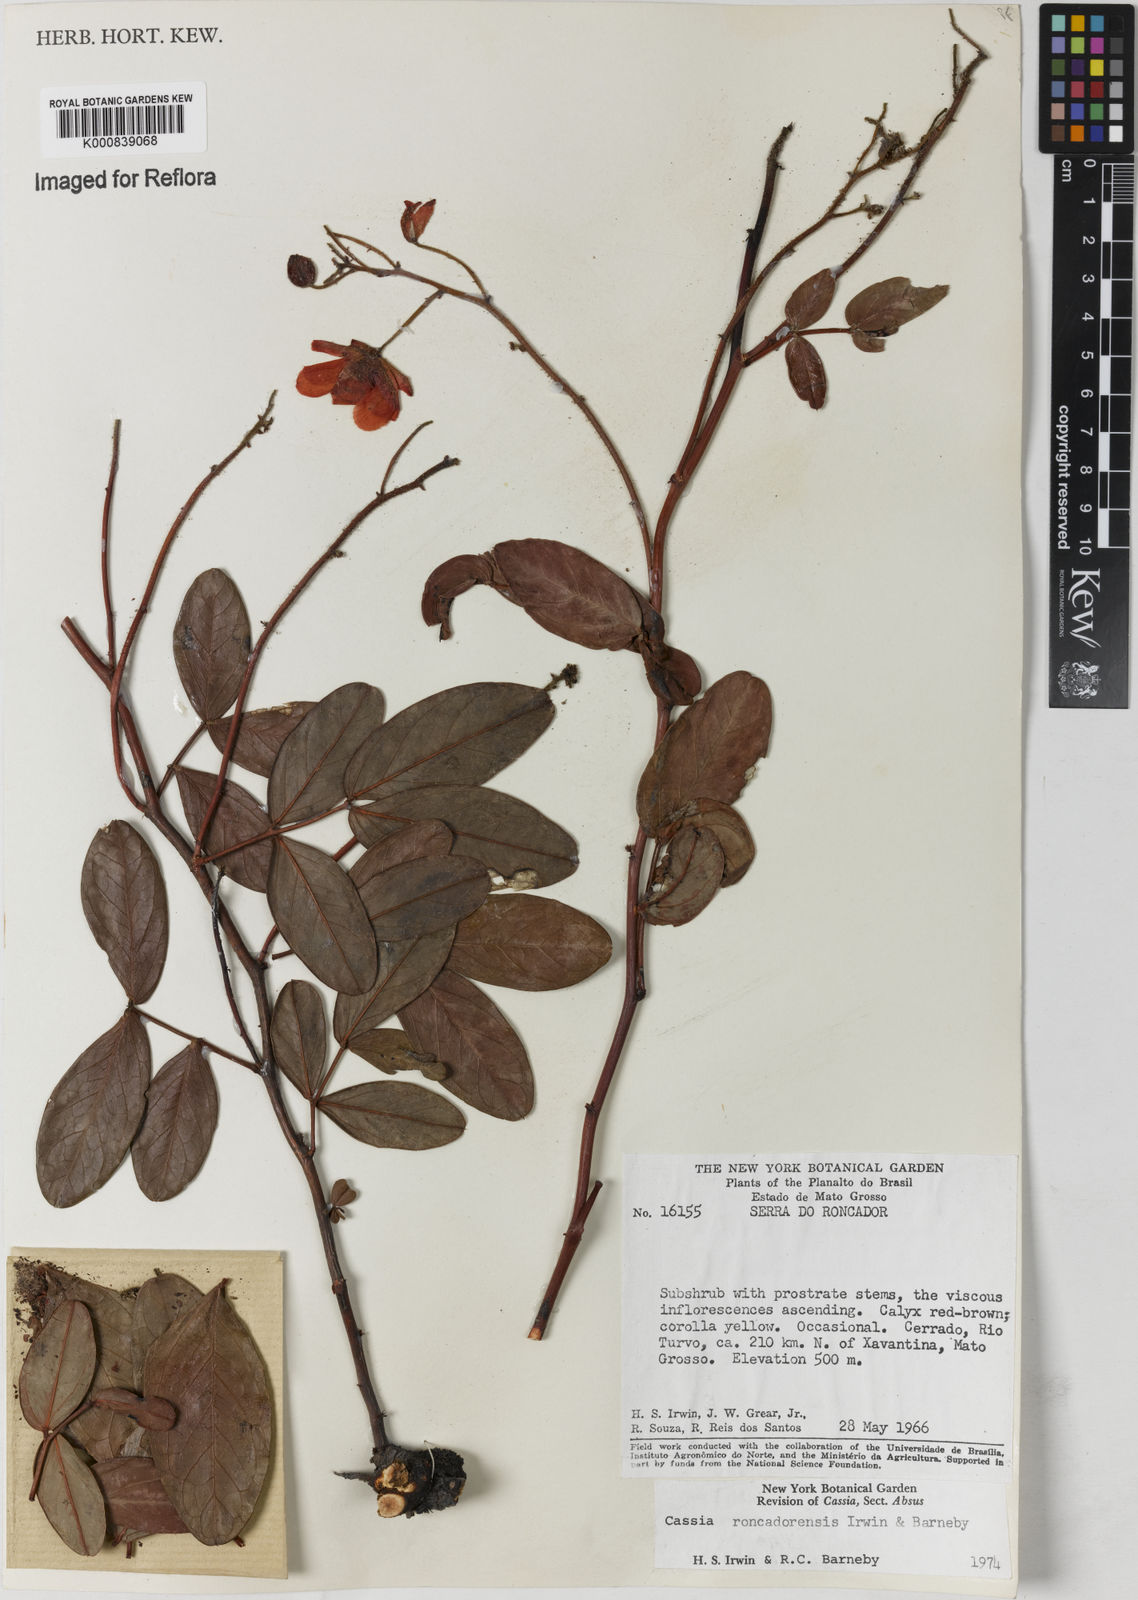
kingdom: Plantae
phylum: Tracheophyta
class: Magnoliopsida
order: Fabales
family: Fabaceae
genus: Chamaecrista
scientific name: Chamaecrista roncadorensis
